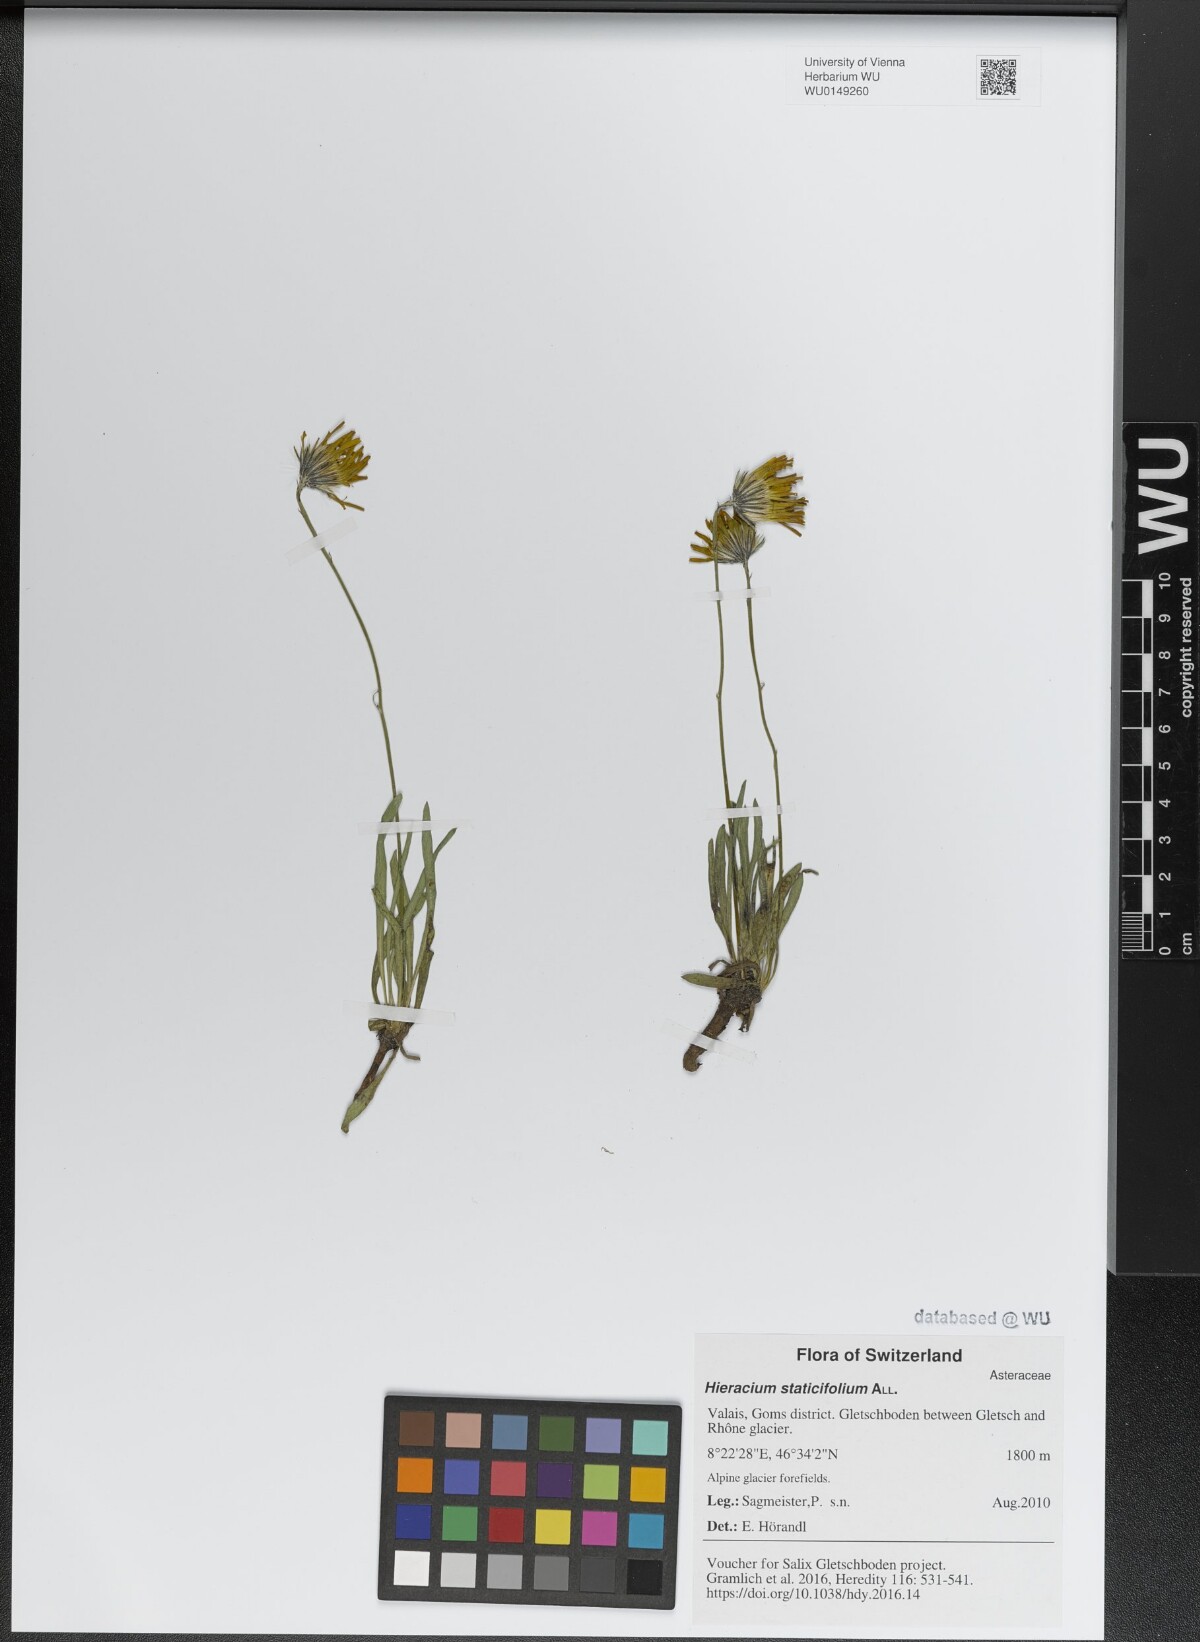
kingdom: Plantae
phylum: Tracheophyta
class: Magnoliopsida
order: Asterales
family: Asteraceae
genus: Tolpis
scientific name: Tolpis staticifolia
